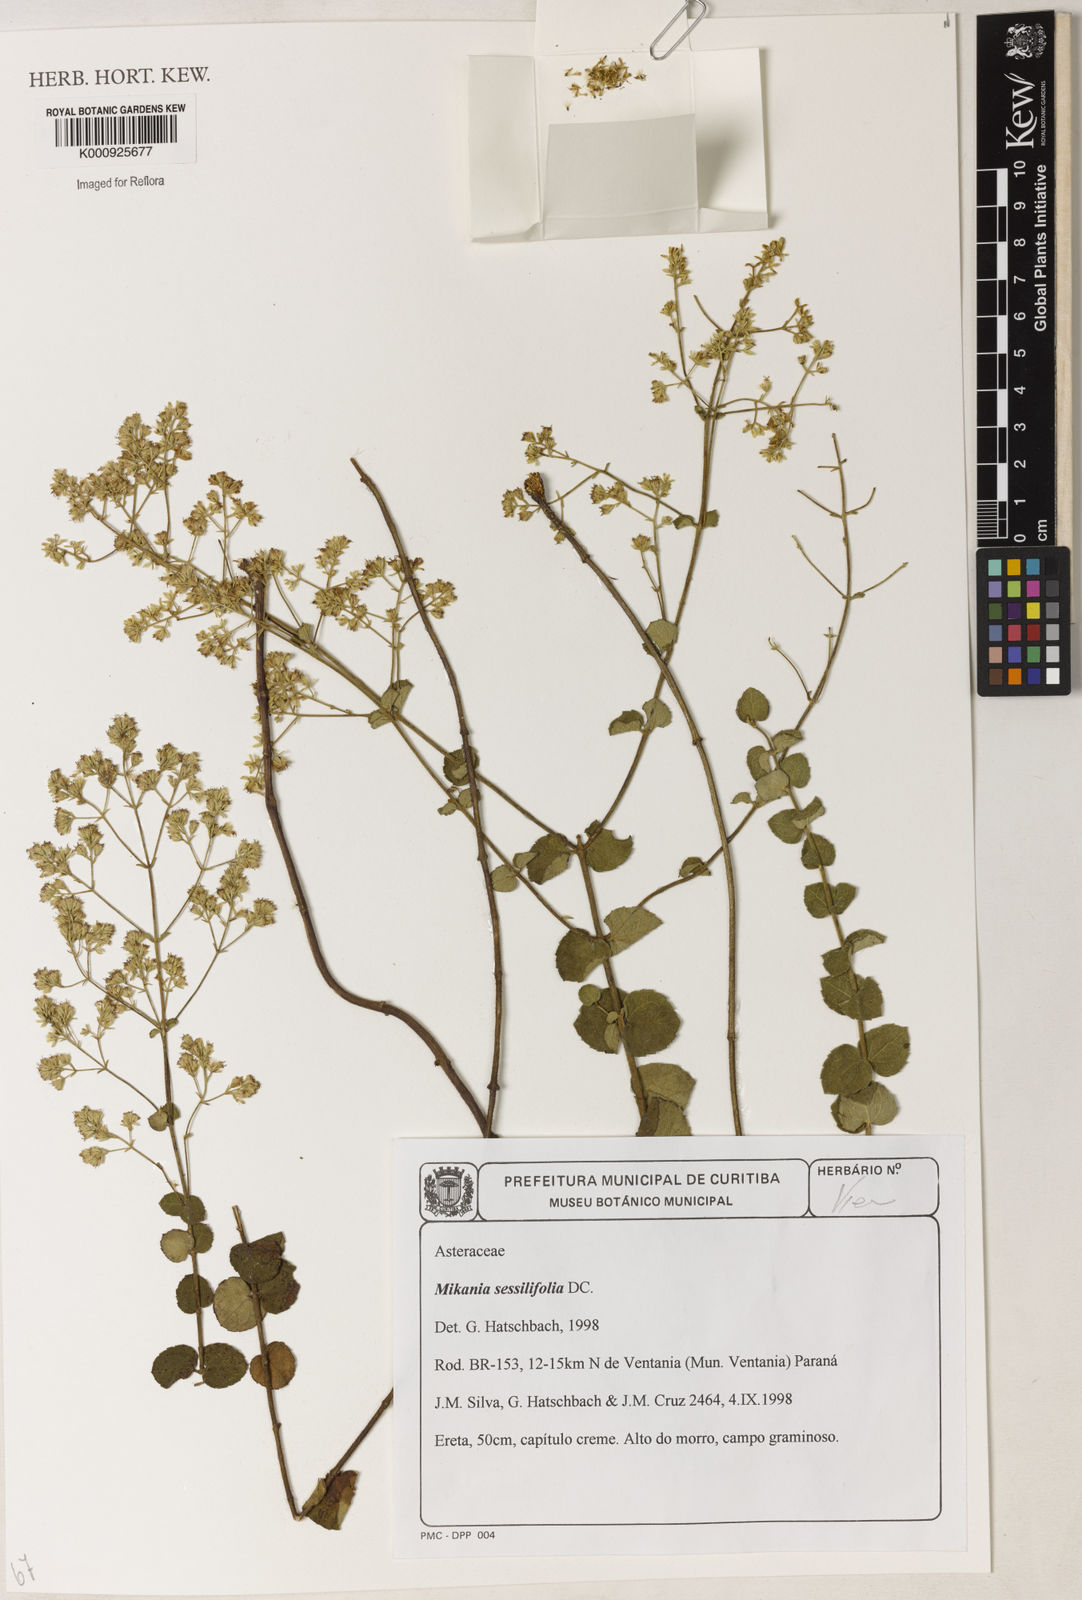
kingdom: Plantae
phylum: Tracheophyta
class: Magnoliopsida
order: Asterales
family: Asteraceae
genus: Mikania
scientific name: Mikania sessilifolia
